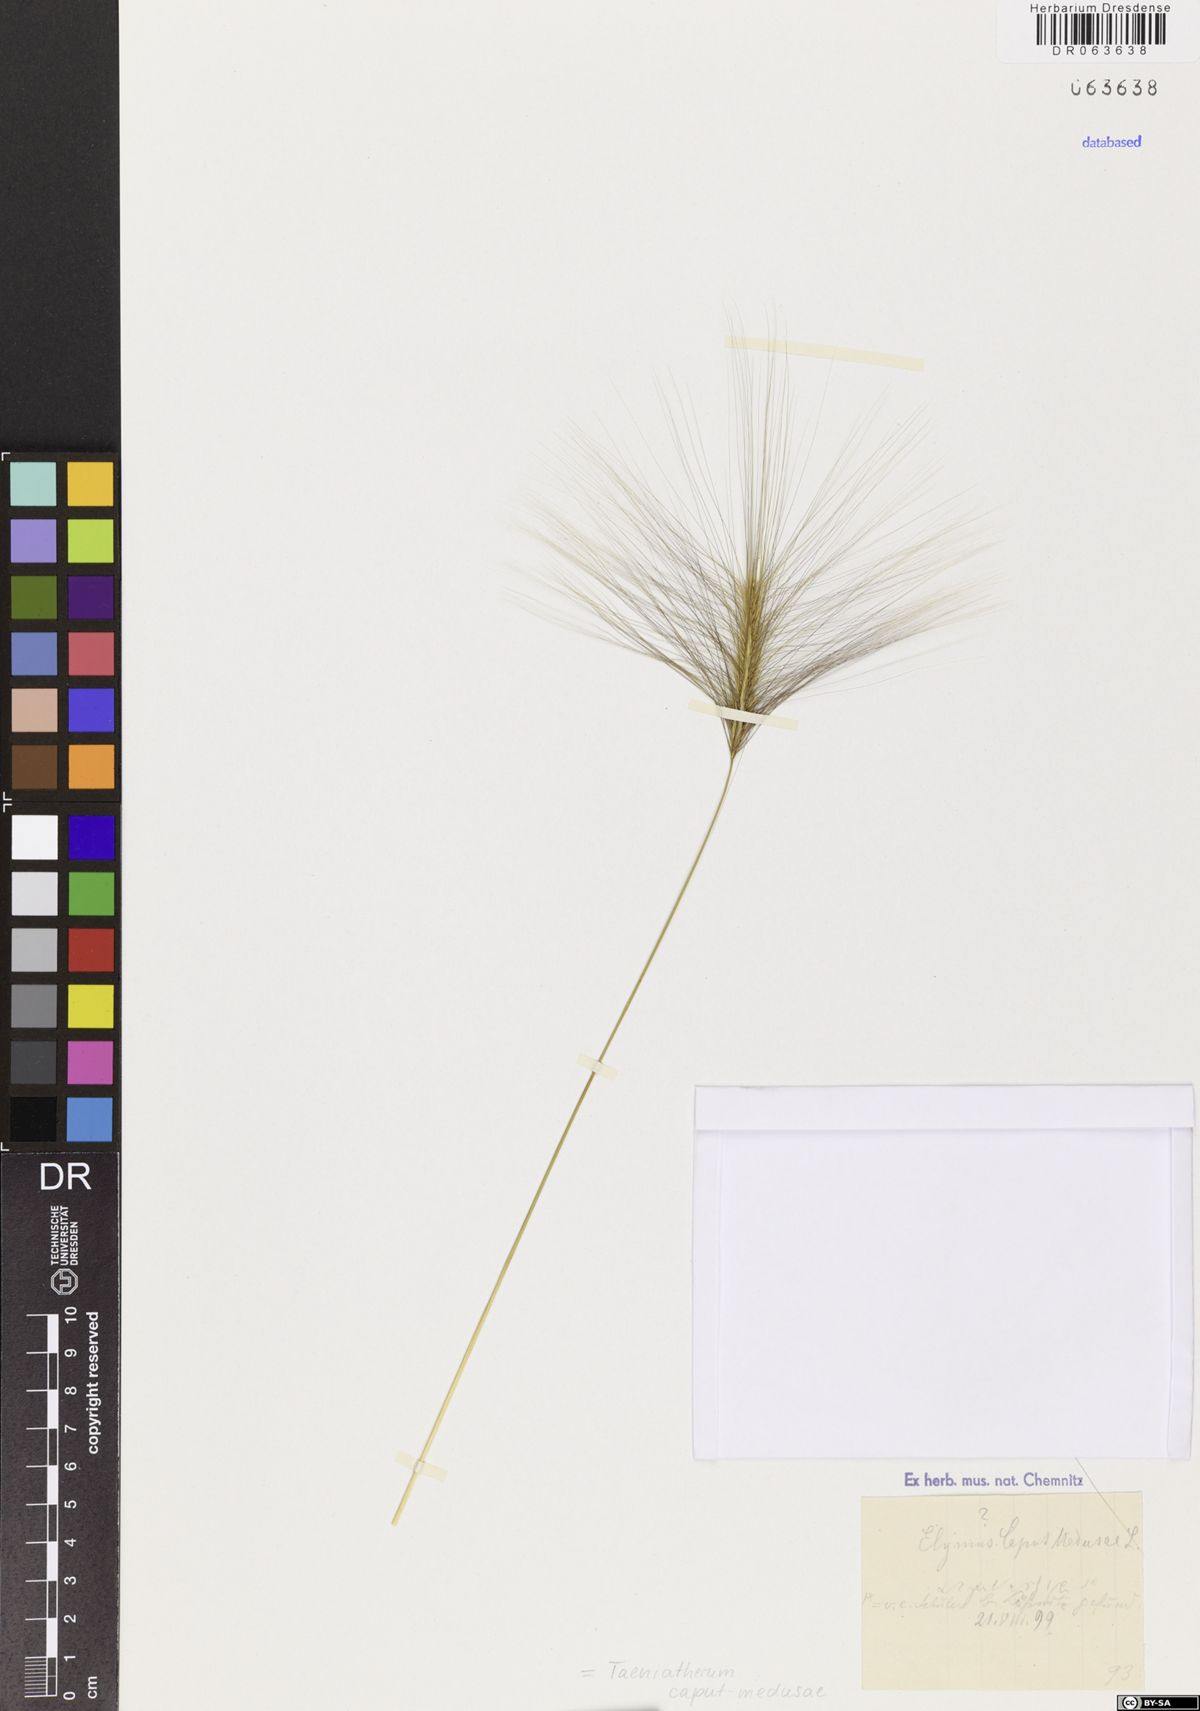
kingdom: Plantae
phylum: Tracheophyta
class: Liliopsida
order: Poales
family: Poaceae
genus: Taeniatherum
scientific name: Taeniatherum caput-medusae
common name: Medusahead
